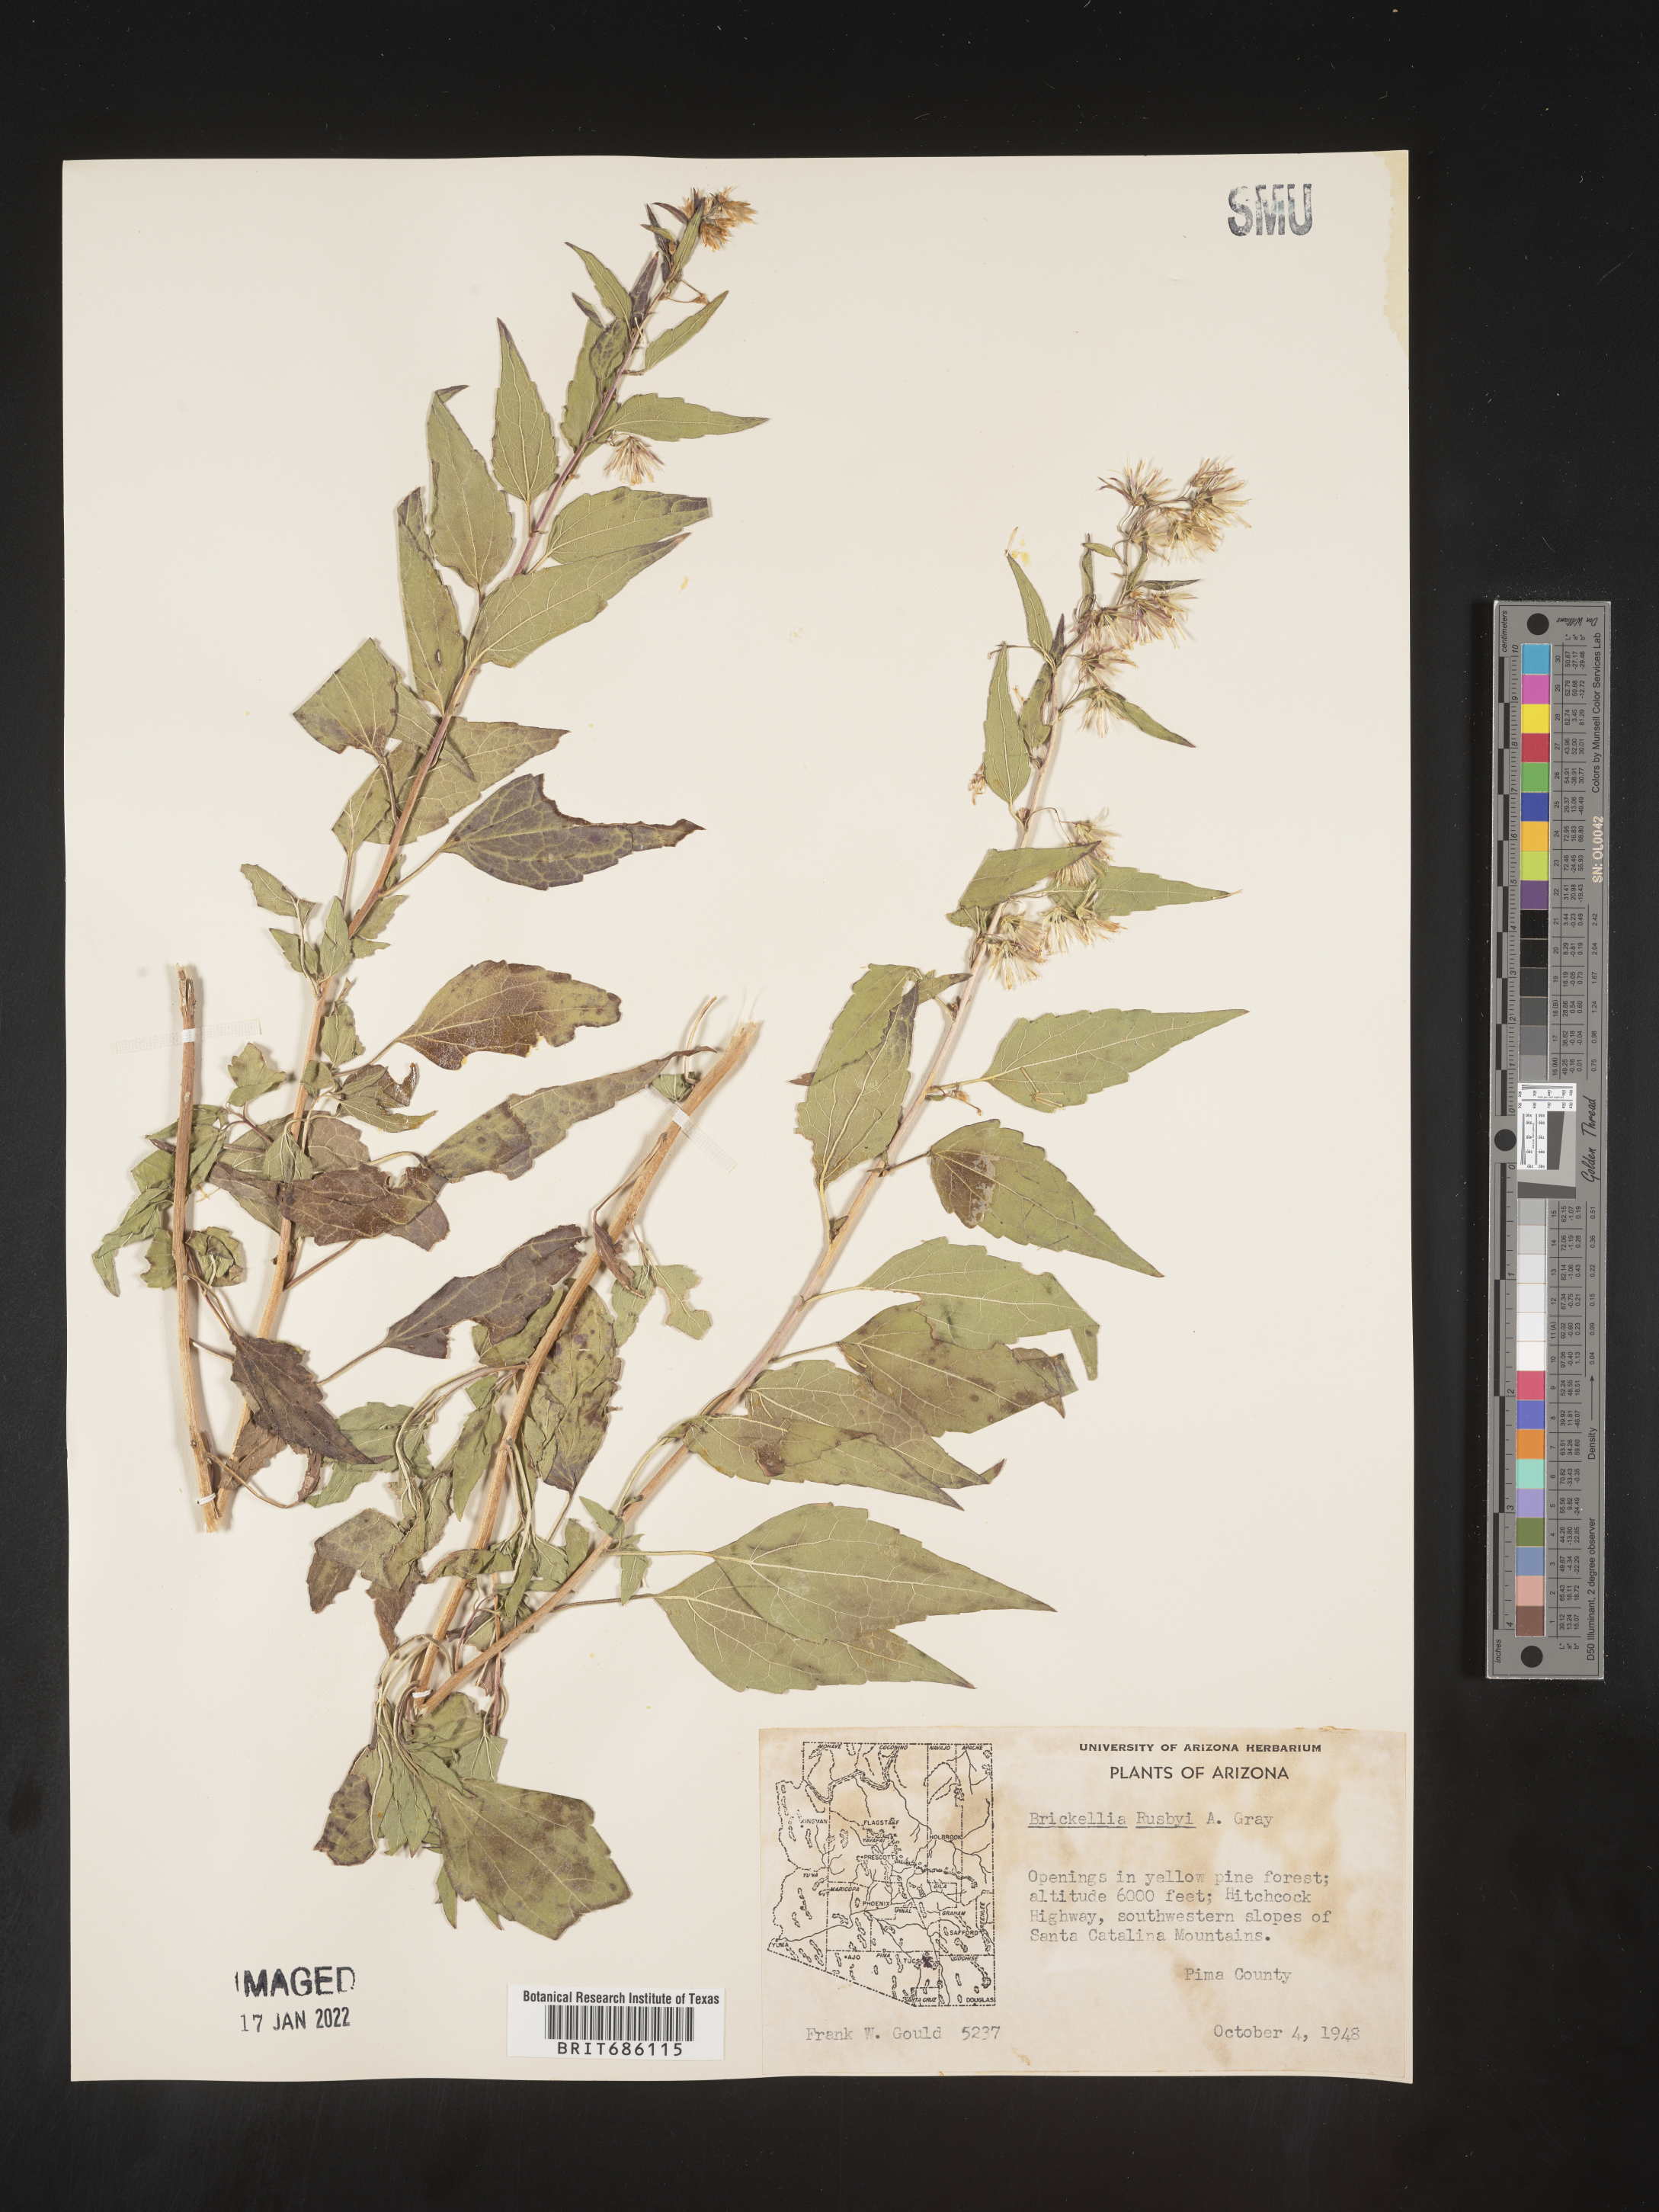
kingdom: Plantae
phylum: Tracheophyta
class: Magnoliopsida
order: Asterales
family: Asteraceae
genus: Brickellia
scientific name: Brickellia rusbyi
